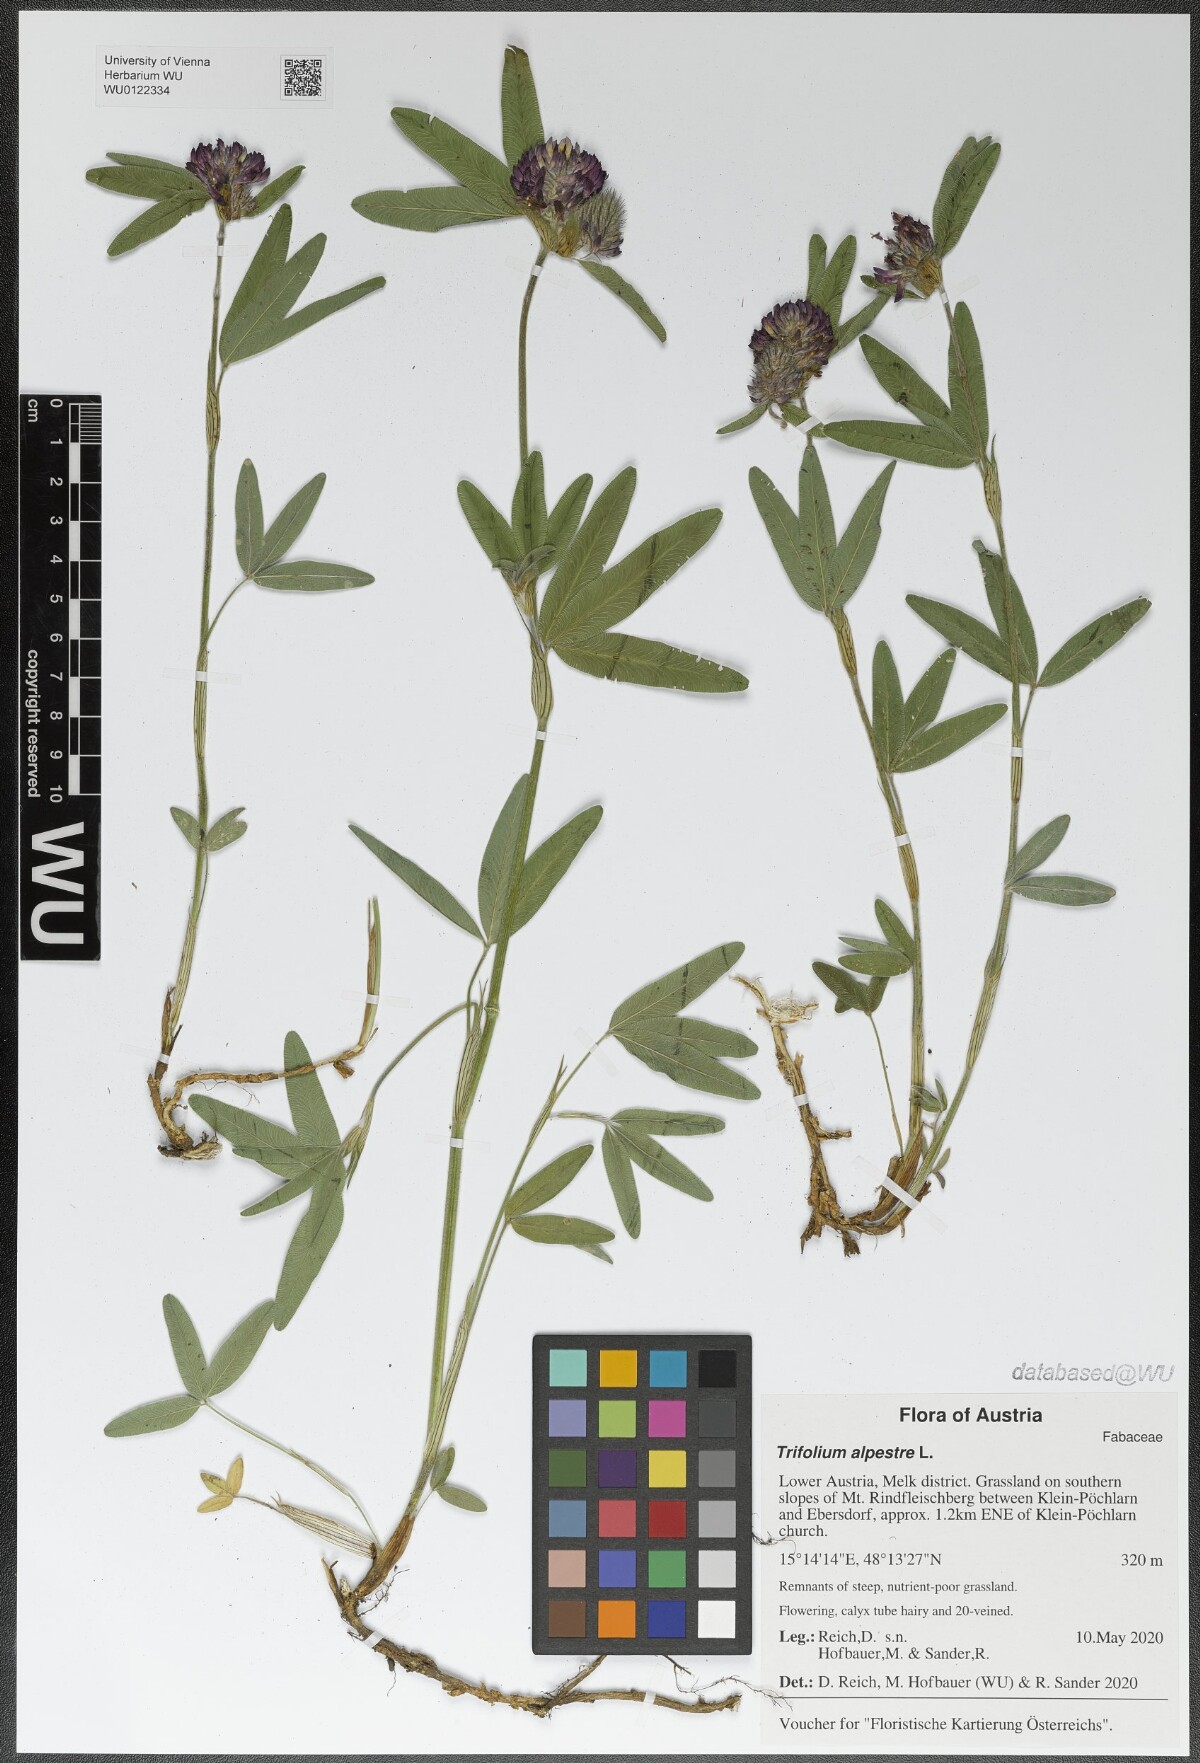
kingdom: Plantae
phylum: Tracheophyta
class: Magnoliopsida
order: Fabales
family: Fabaceae
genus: Trifolium
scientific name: Trifolium alpestre
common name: Owl-head clover
